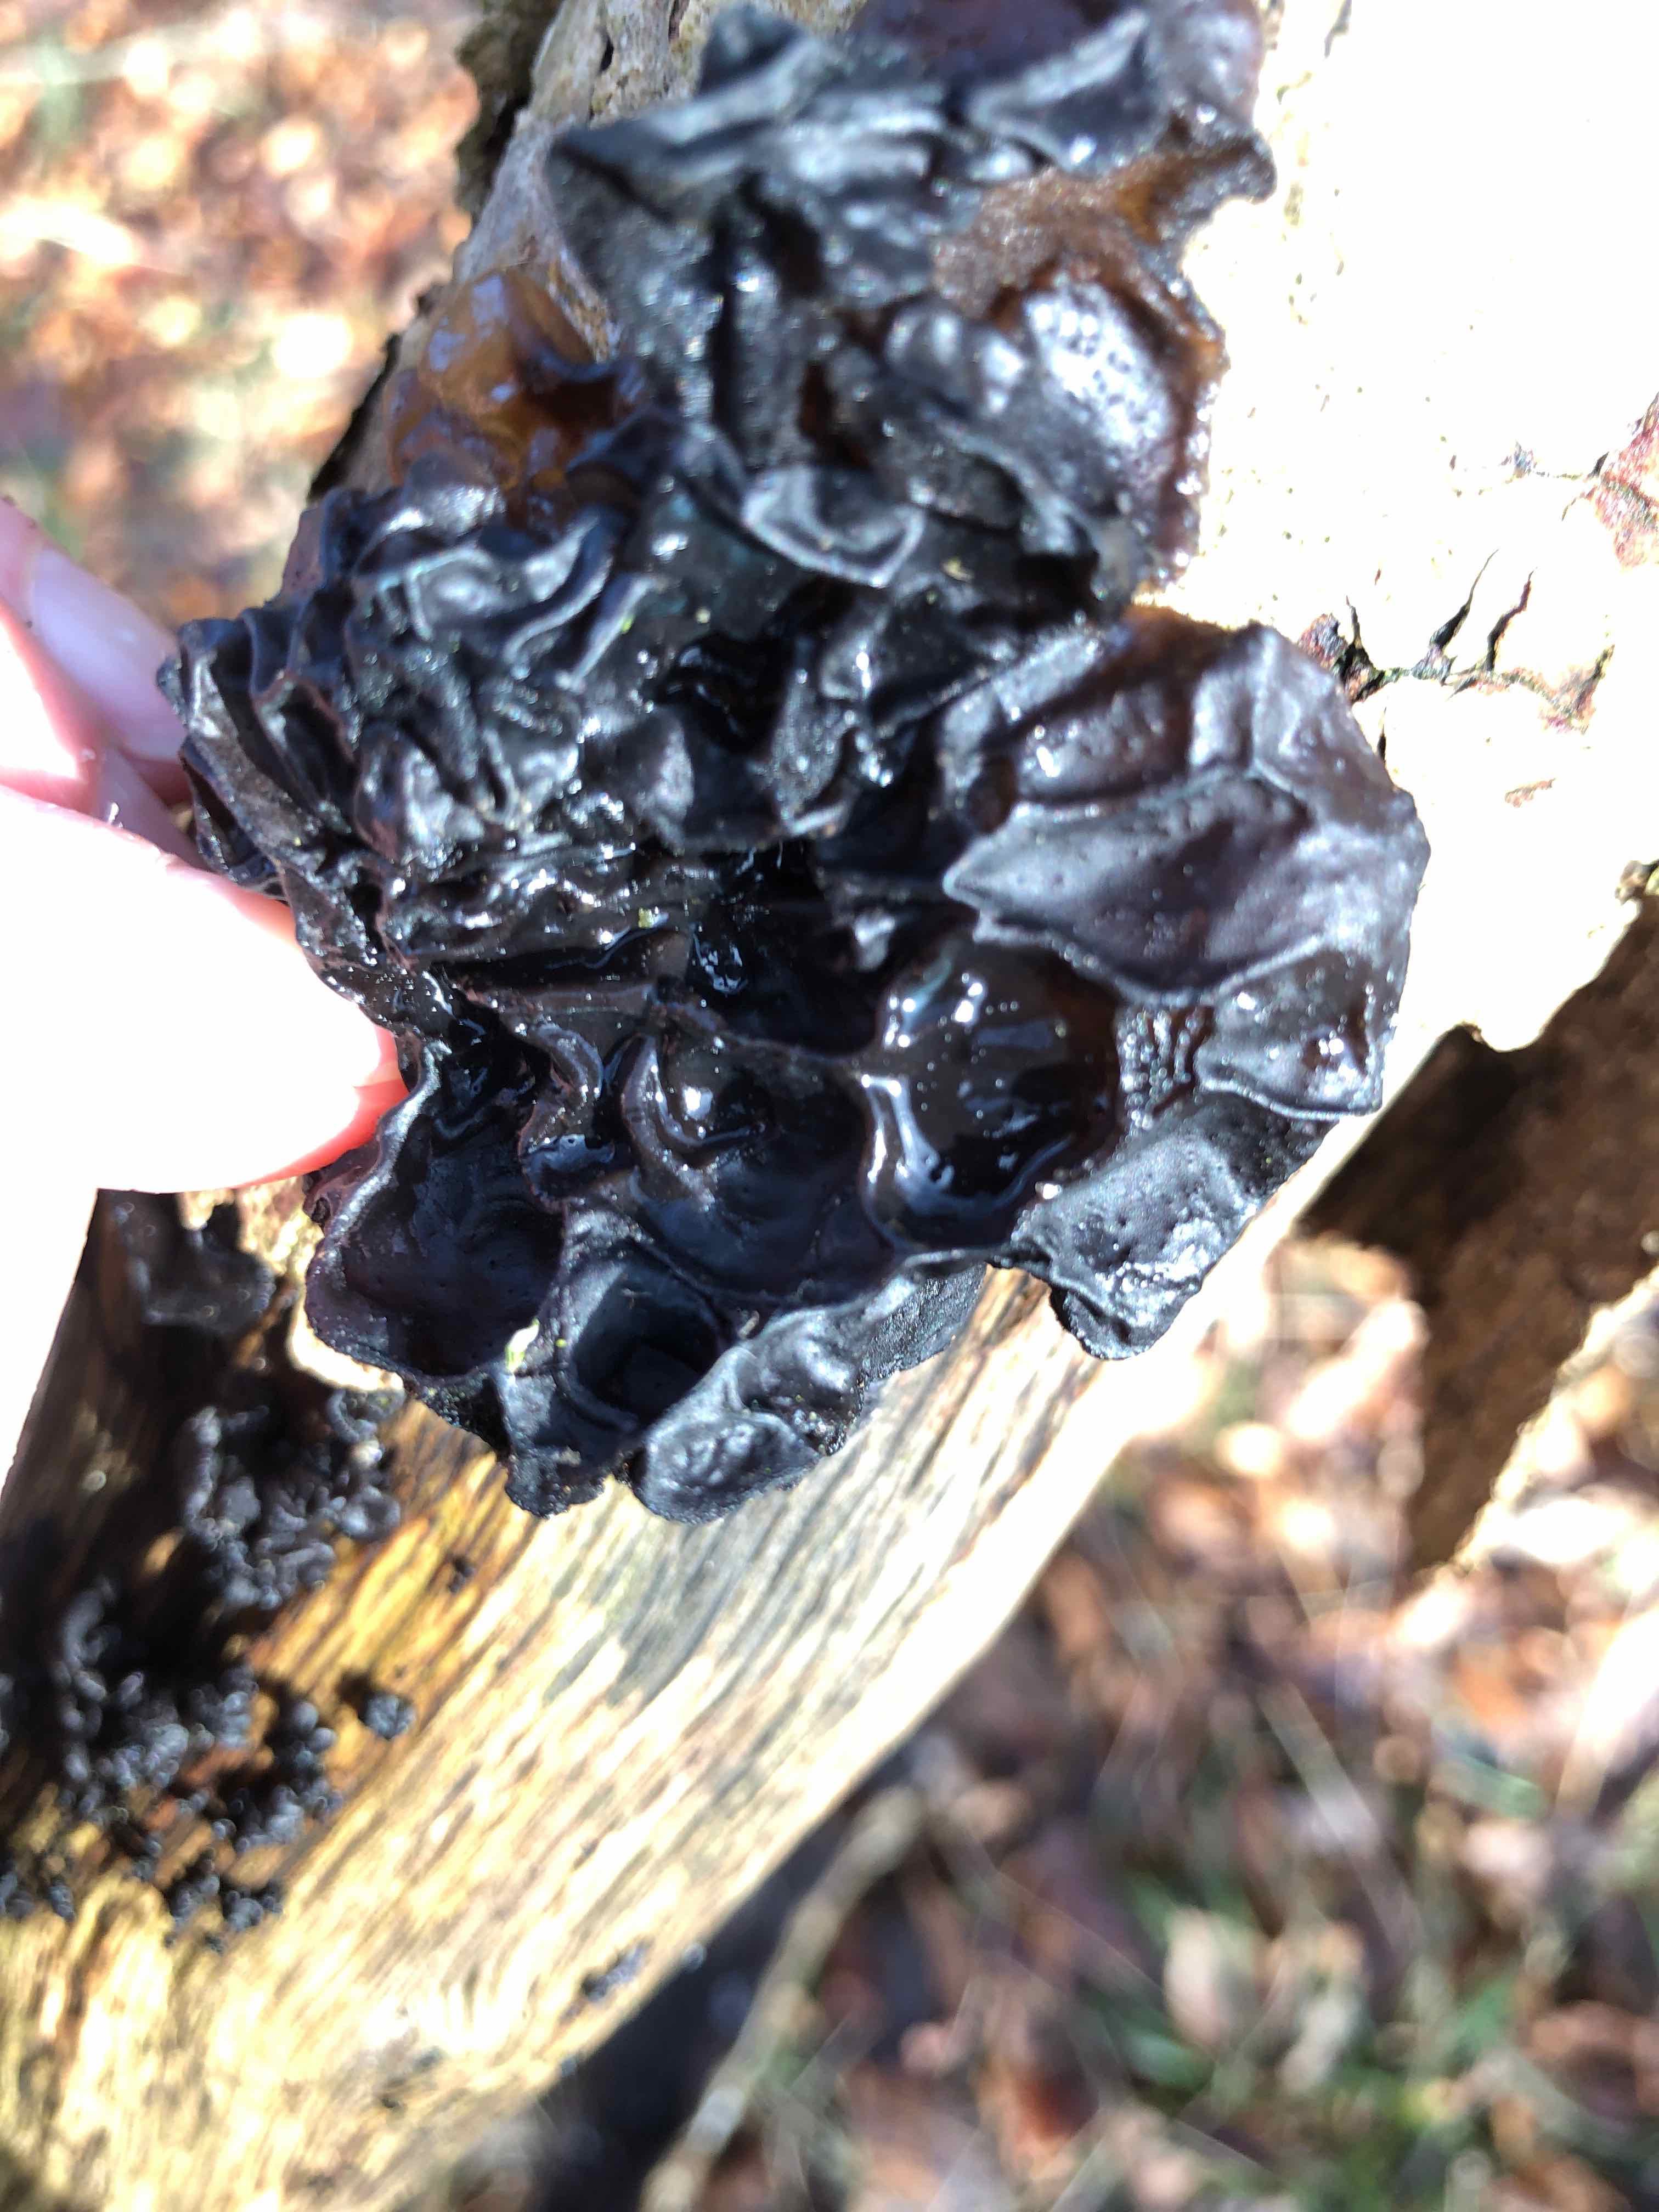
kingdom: Fungi
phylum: Basidiomycota
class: Agaricomycetes
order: Auriculariales
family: Auriculariaceae
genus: Exidia
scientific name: Exidia glandulosa
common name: ege-bævretop
